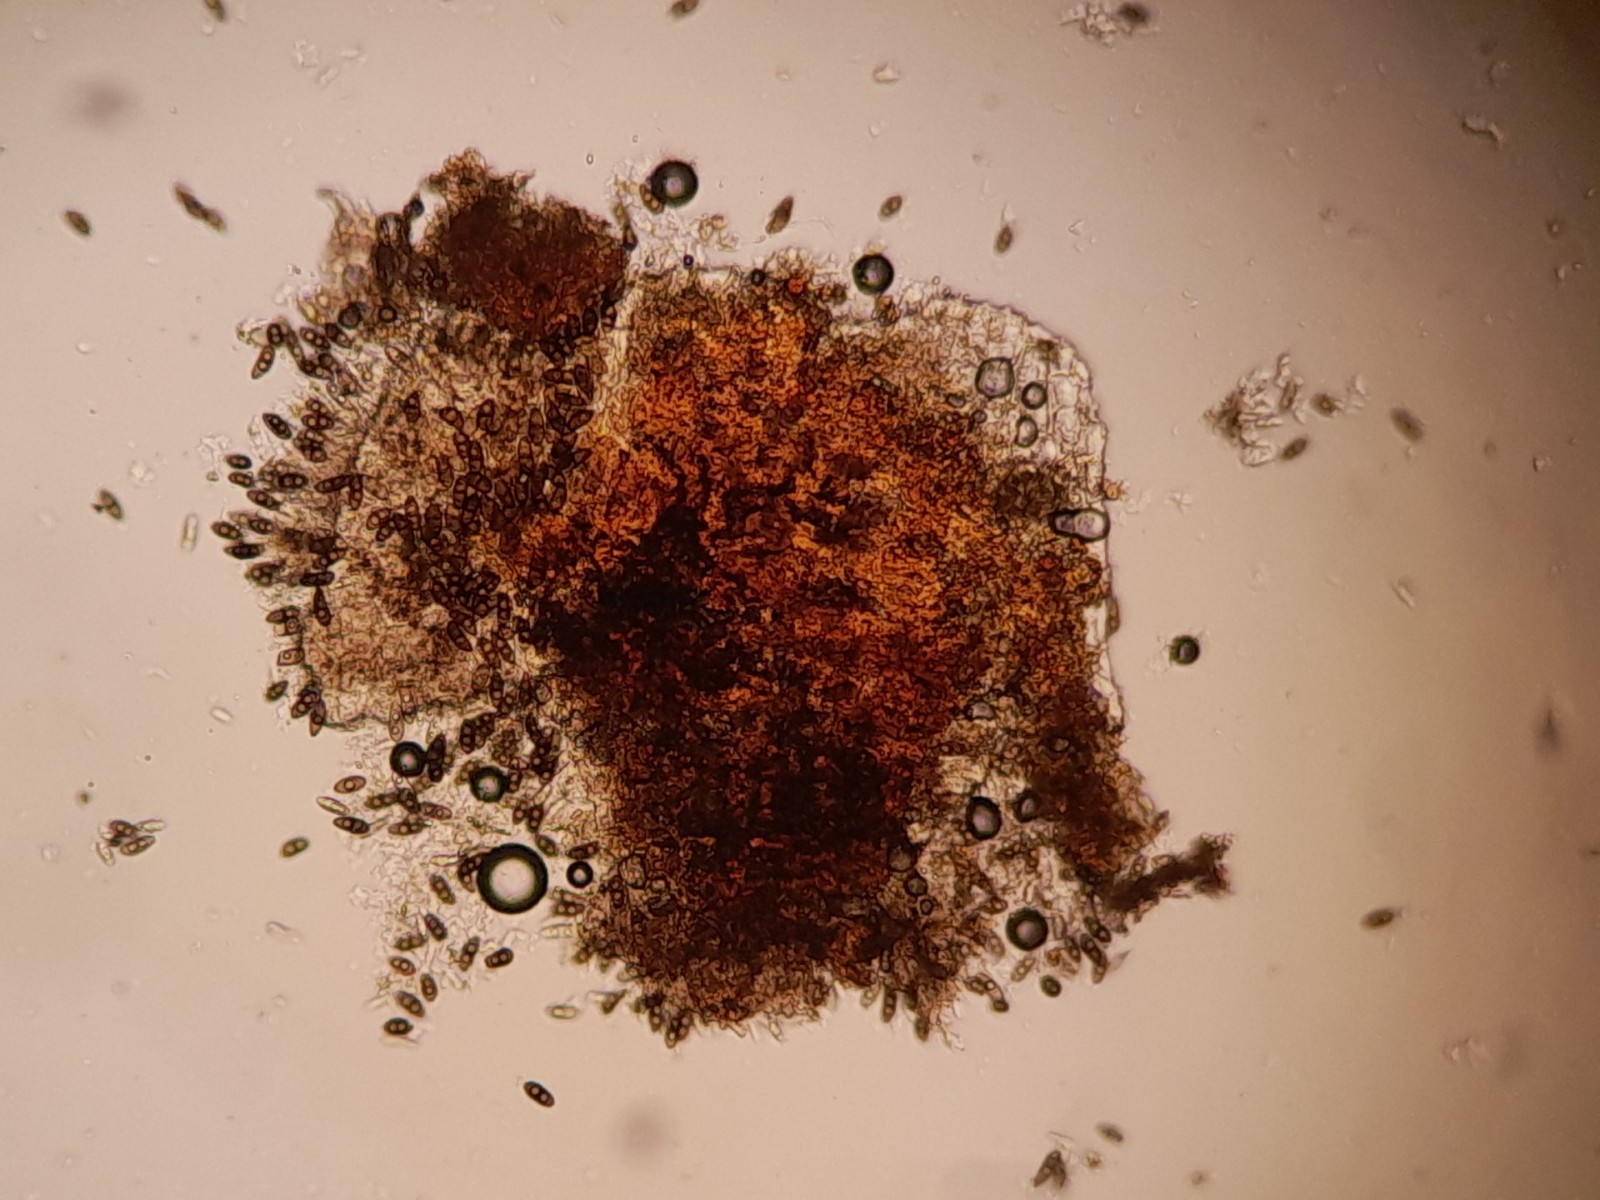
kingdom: Fungi
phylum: Ascomycota
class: Leotiomycetes
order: Helotiales
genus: Apiculospora
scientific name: Apiculospora spartii
